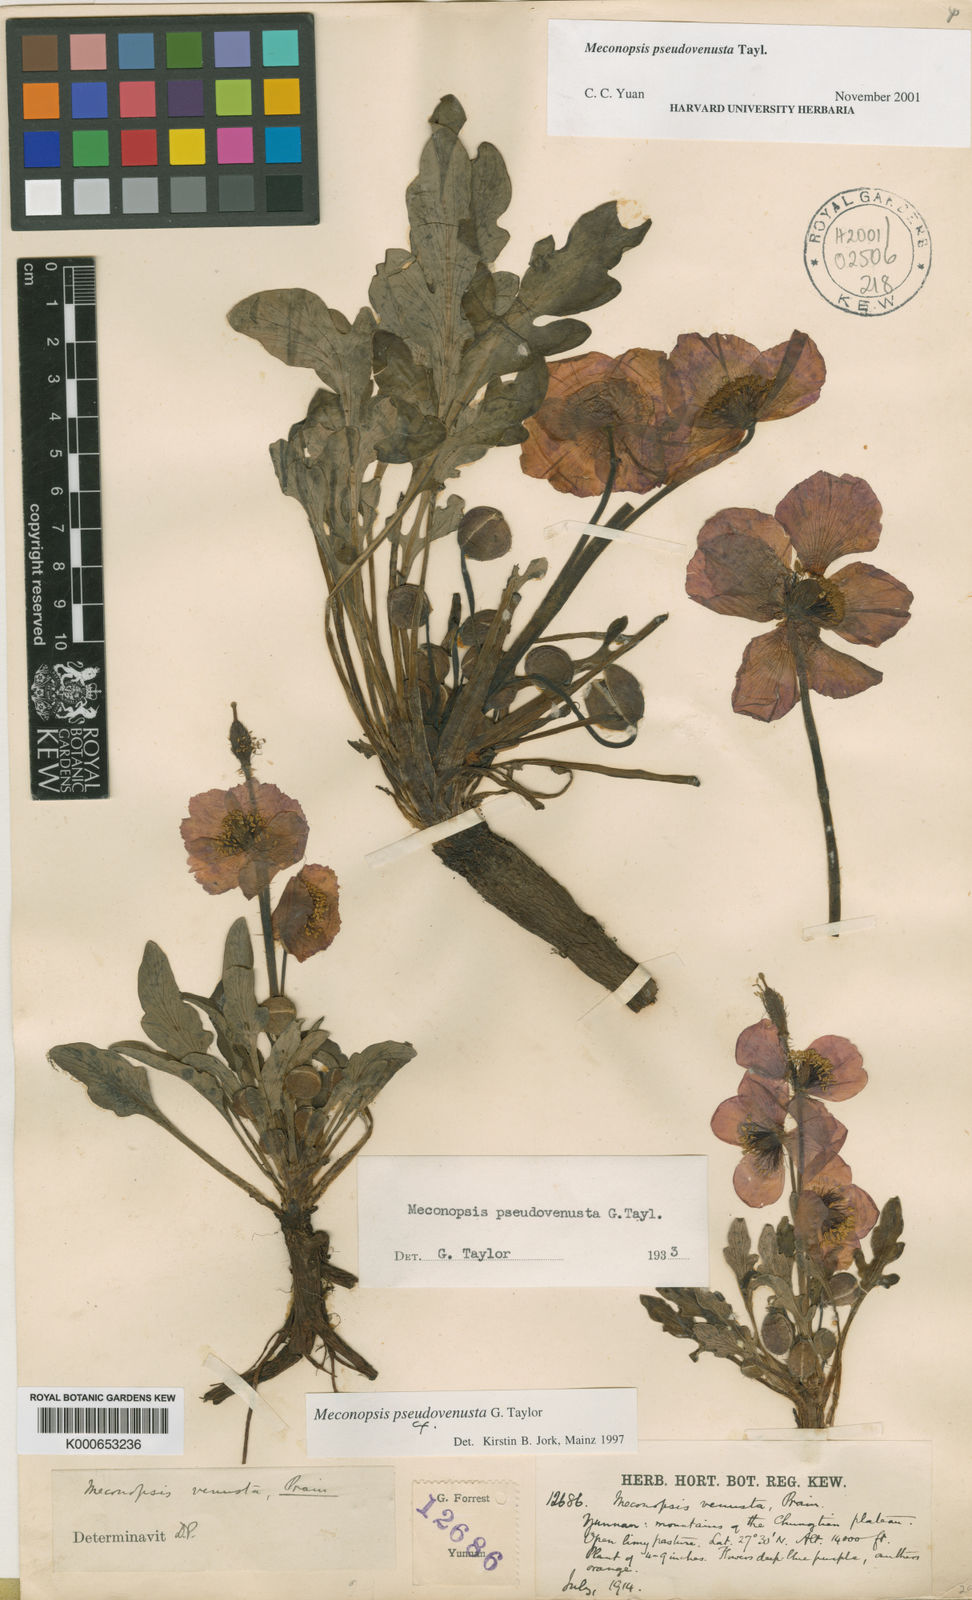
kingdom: Plantae
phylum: Tracheophyta
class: Magnoliopsida
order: Ranunculales
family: Papaveraceae
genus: Meconopsis
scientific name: Meconopsis venusta
